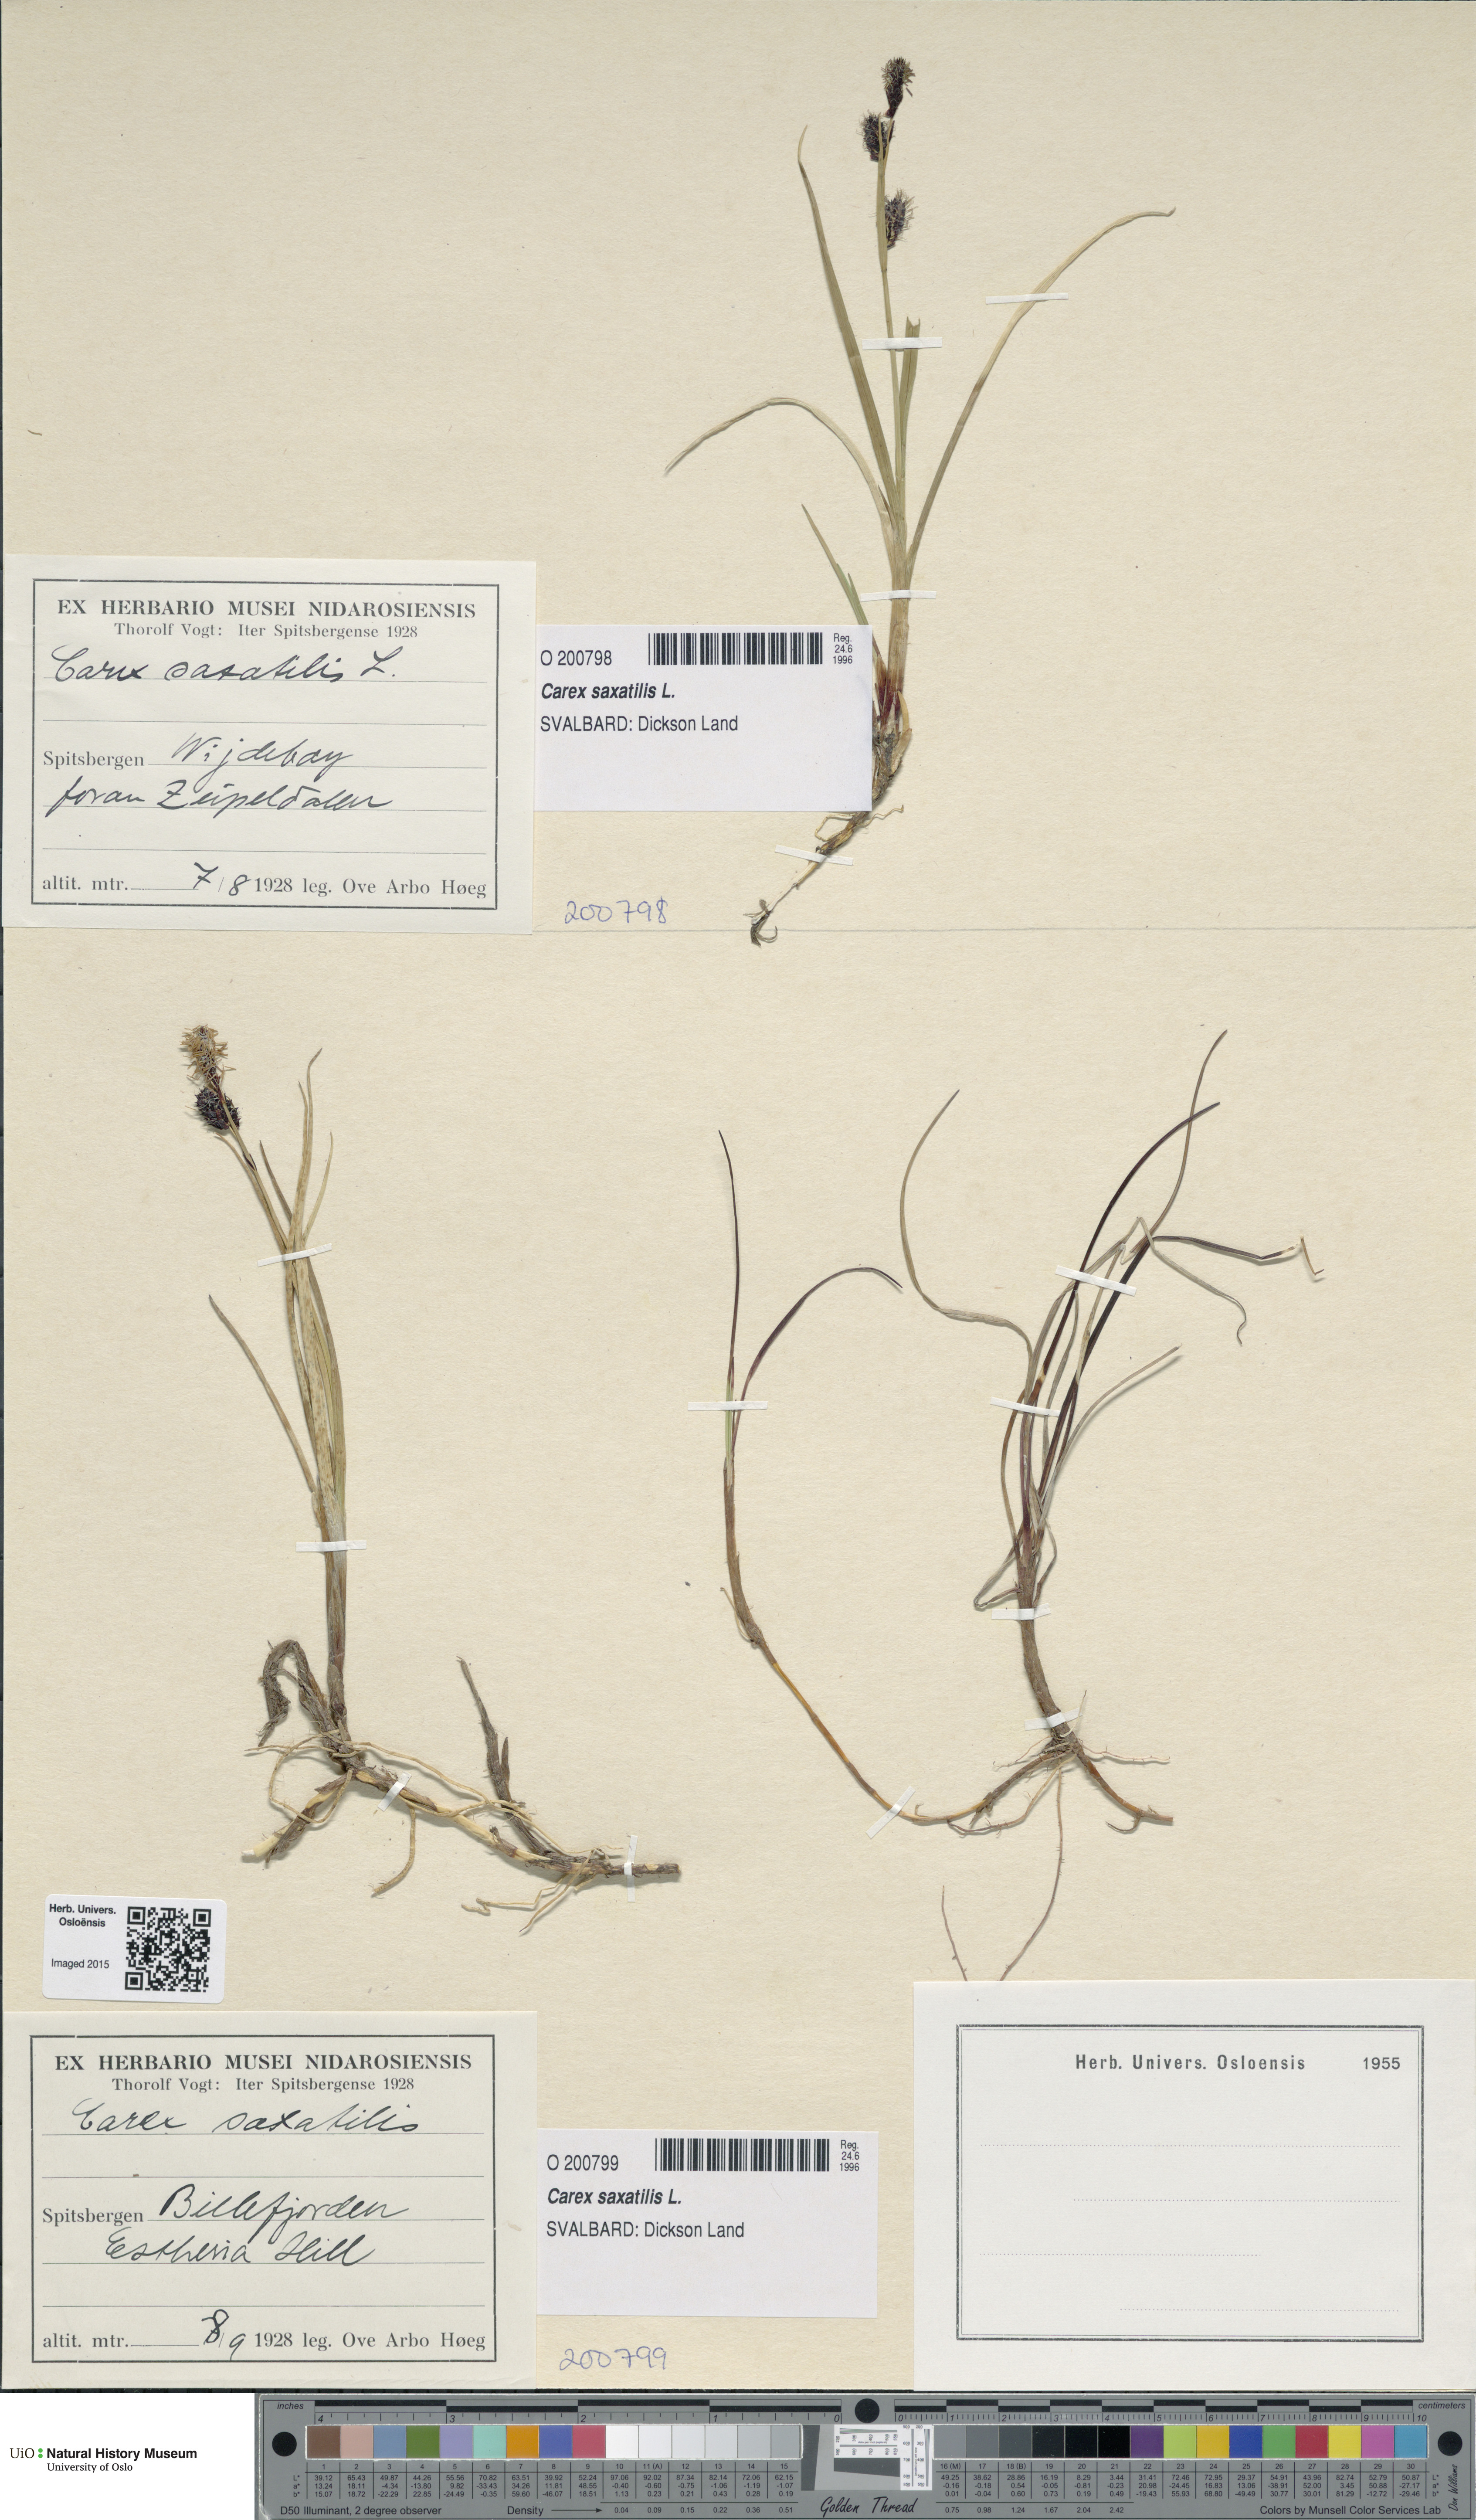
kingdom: Plantae
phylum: Tracheophyta
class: Liliopsida
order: Poales
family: Cyperaceae
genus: Carex
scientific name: Carex saxatilis
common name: Russet sedge
